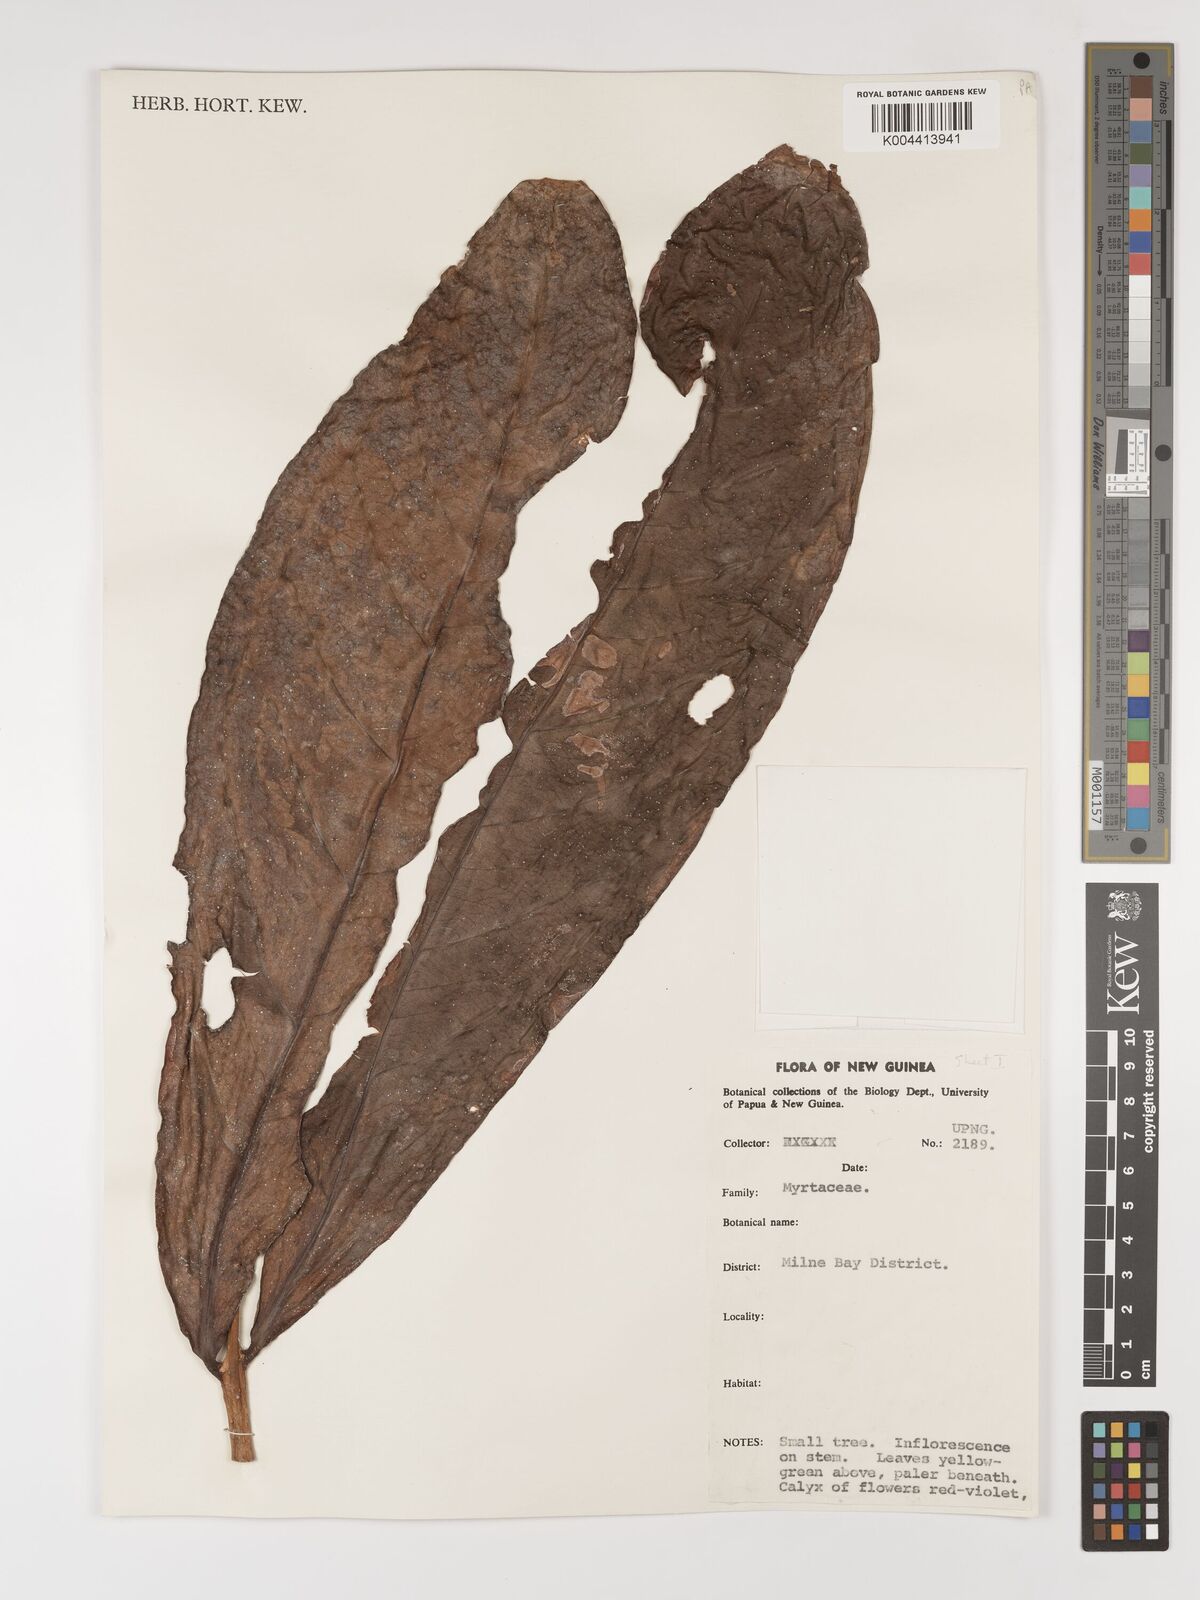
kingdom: Plantae
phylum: Tracheophyta
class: Magnoliopsida
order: Myrtales
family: Myrtaceae
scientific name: Myrtaceae
